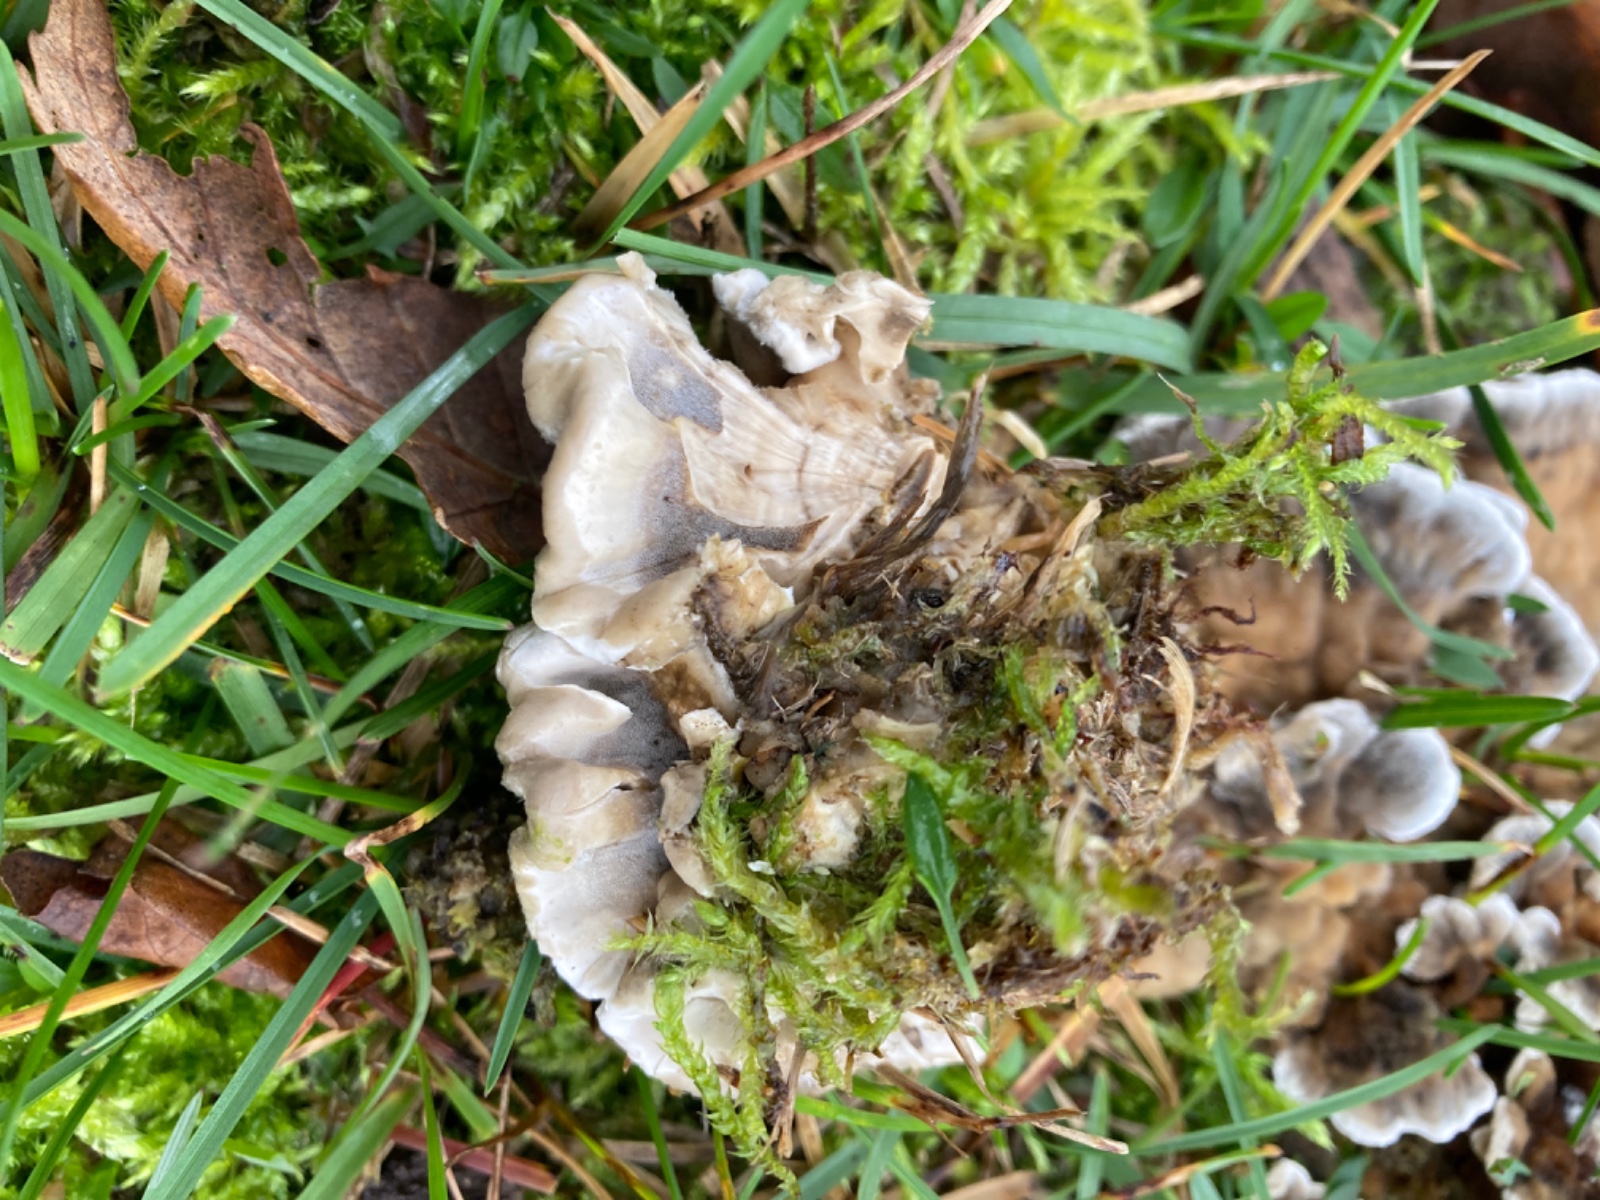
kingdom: Fungi
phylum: Basidiomycota
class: Agaricomycetes
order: Polyporales
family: Phanerochaetaceae
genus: Bjerkandera
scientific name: Bjerkandera adusta
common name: sveden sodporesvamp
